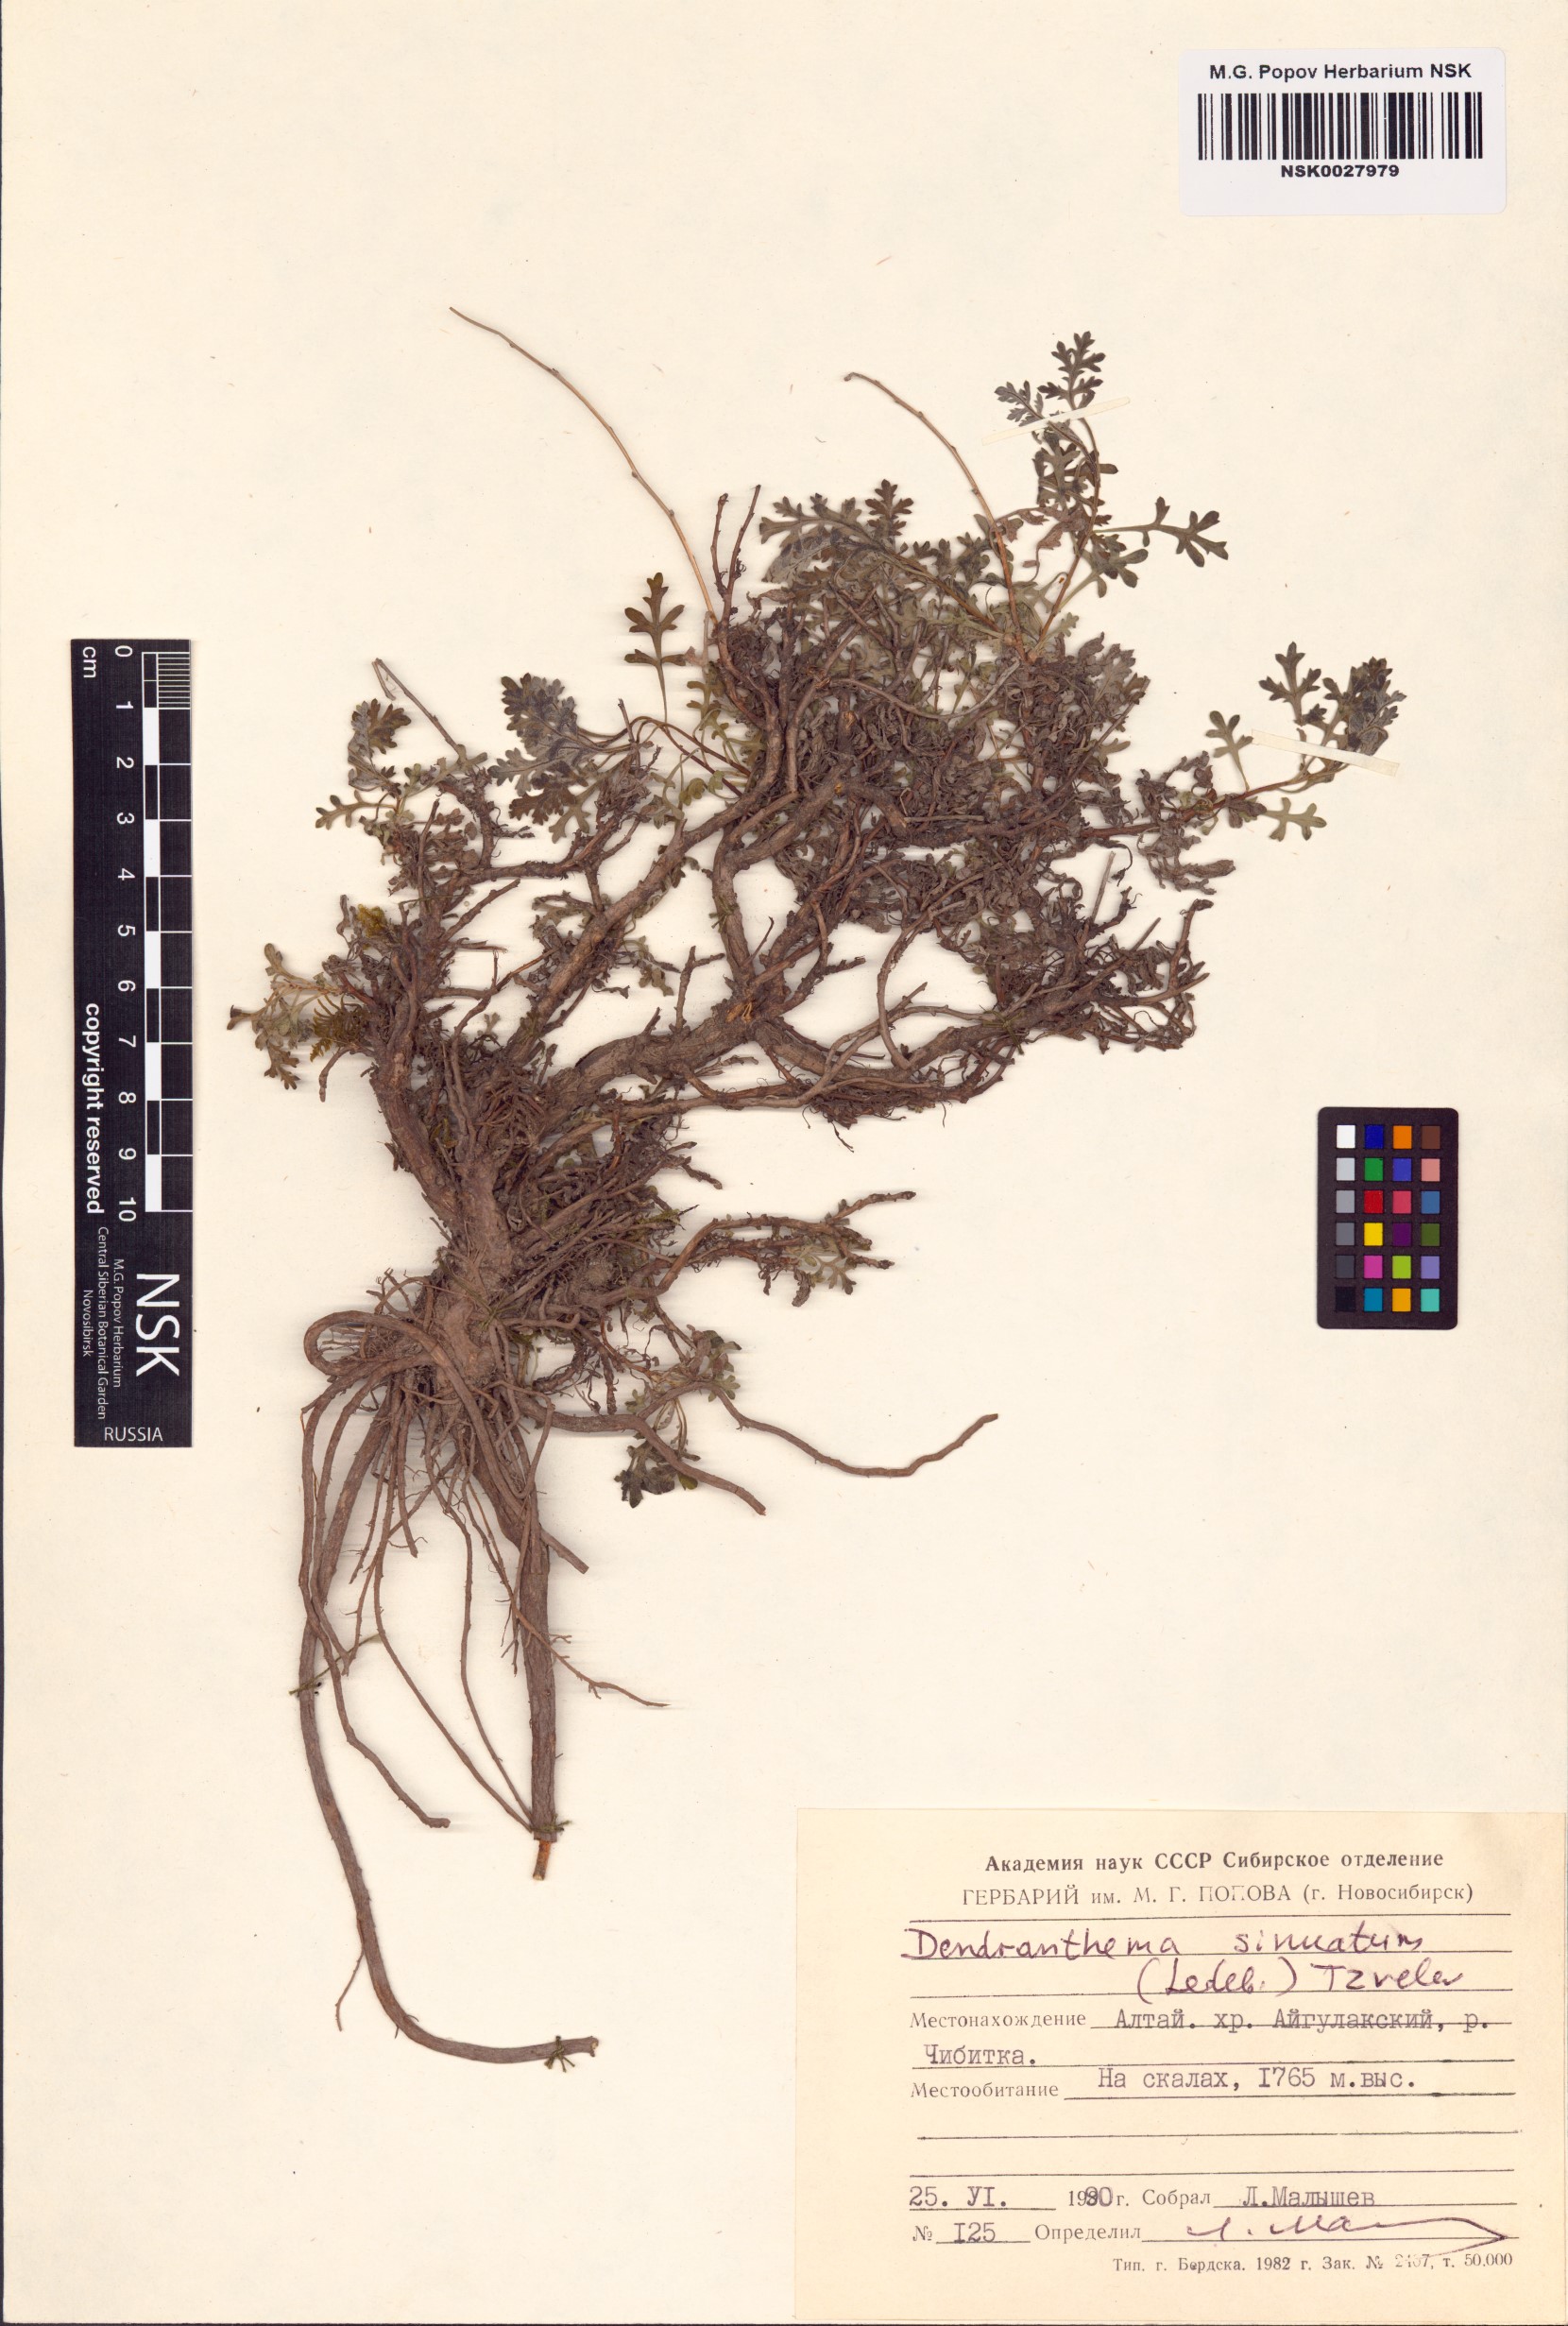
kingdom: Plantae
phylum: Tracheophyta
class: Magnoliopsida
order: Asterales
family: Asteraceae
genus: Chrysanthemum
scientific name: Chrysanthemum sinuatum
